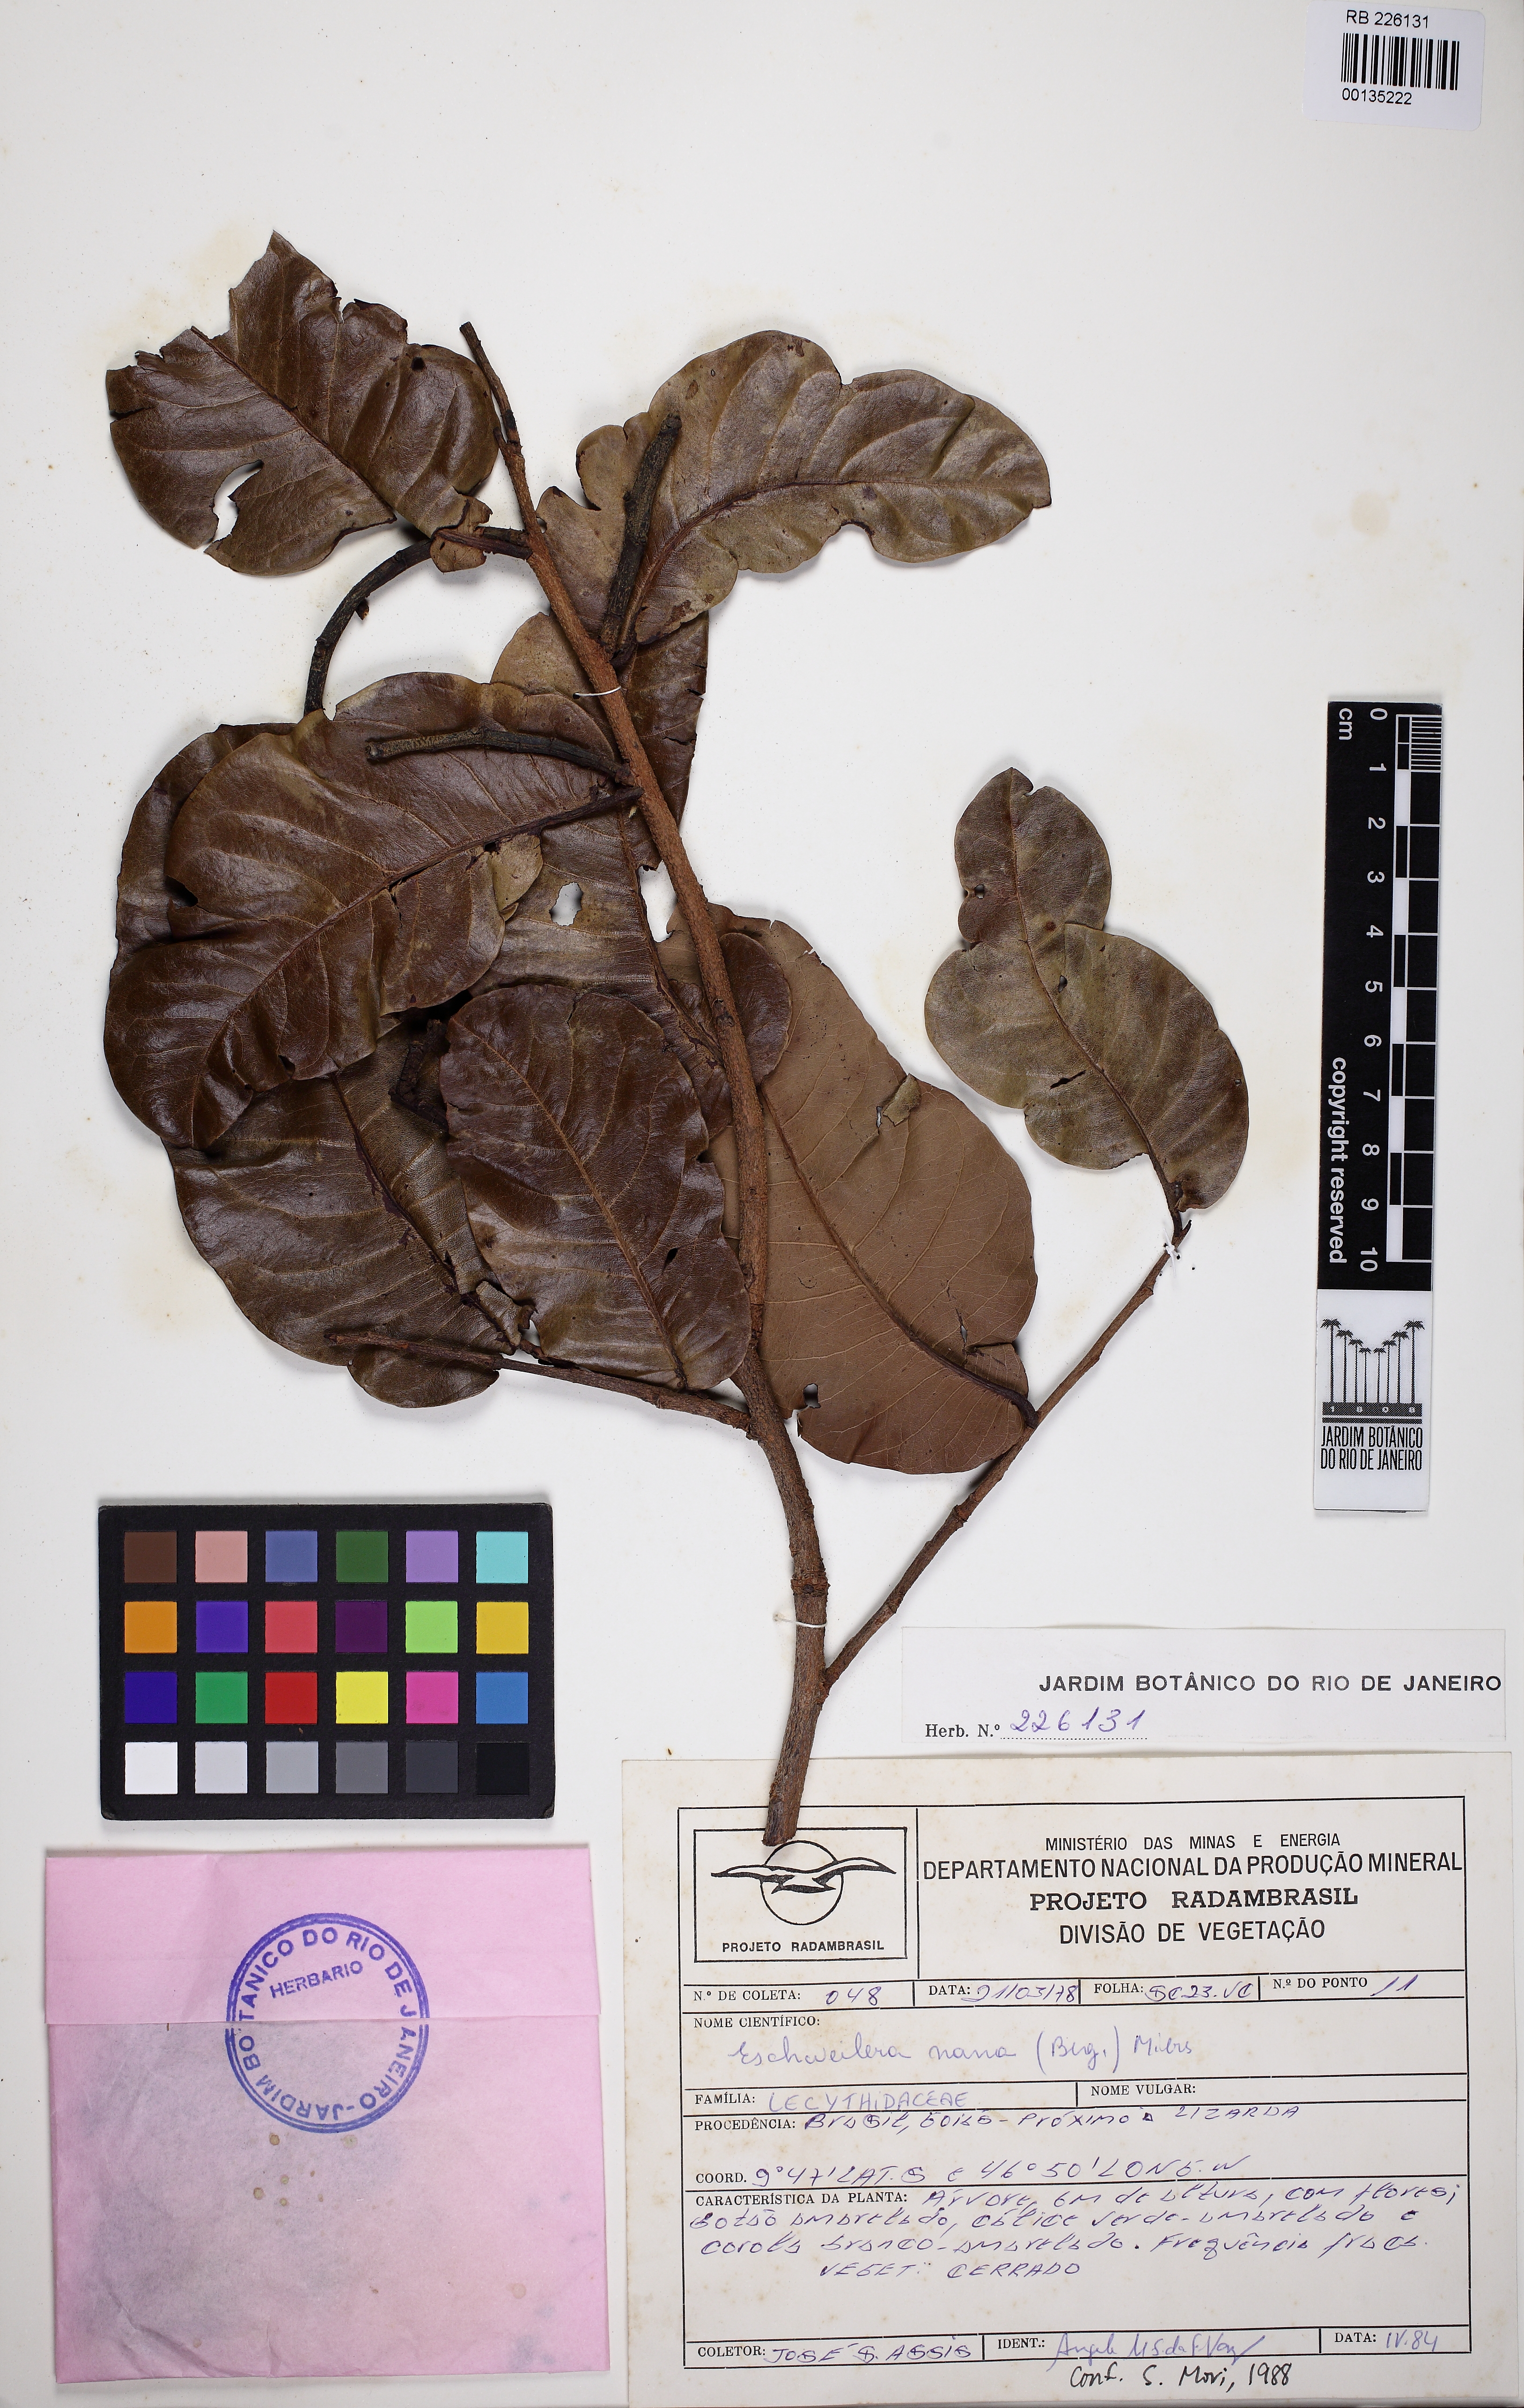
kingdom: Plantae
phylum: Tracheophyta
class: Magnoliopsida
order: Ericales
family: Lecythidaceae
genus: Eschweilera
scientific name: Eschweilera nana
